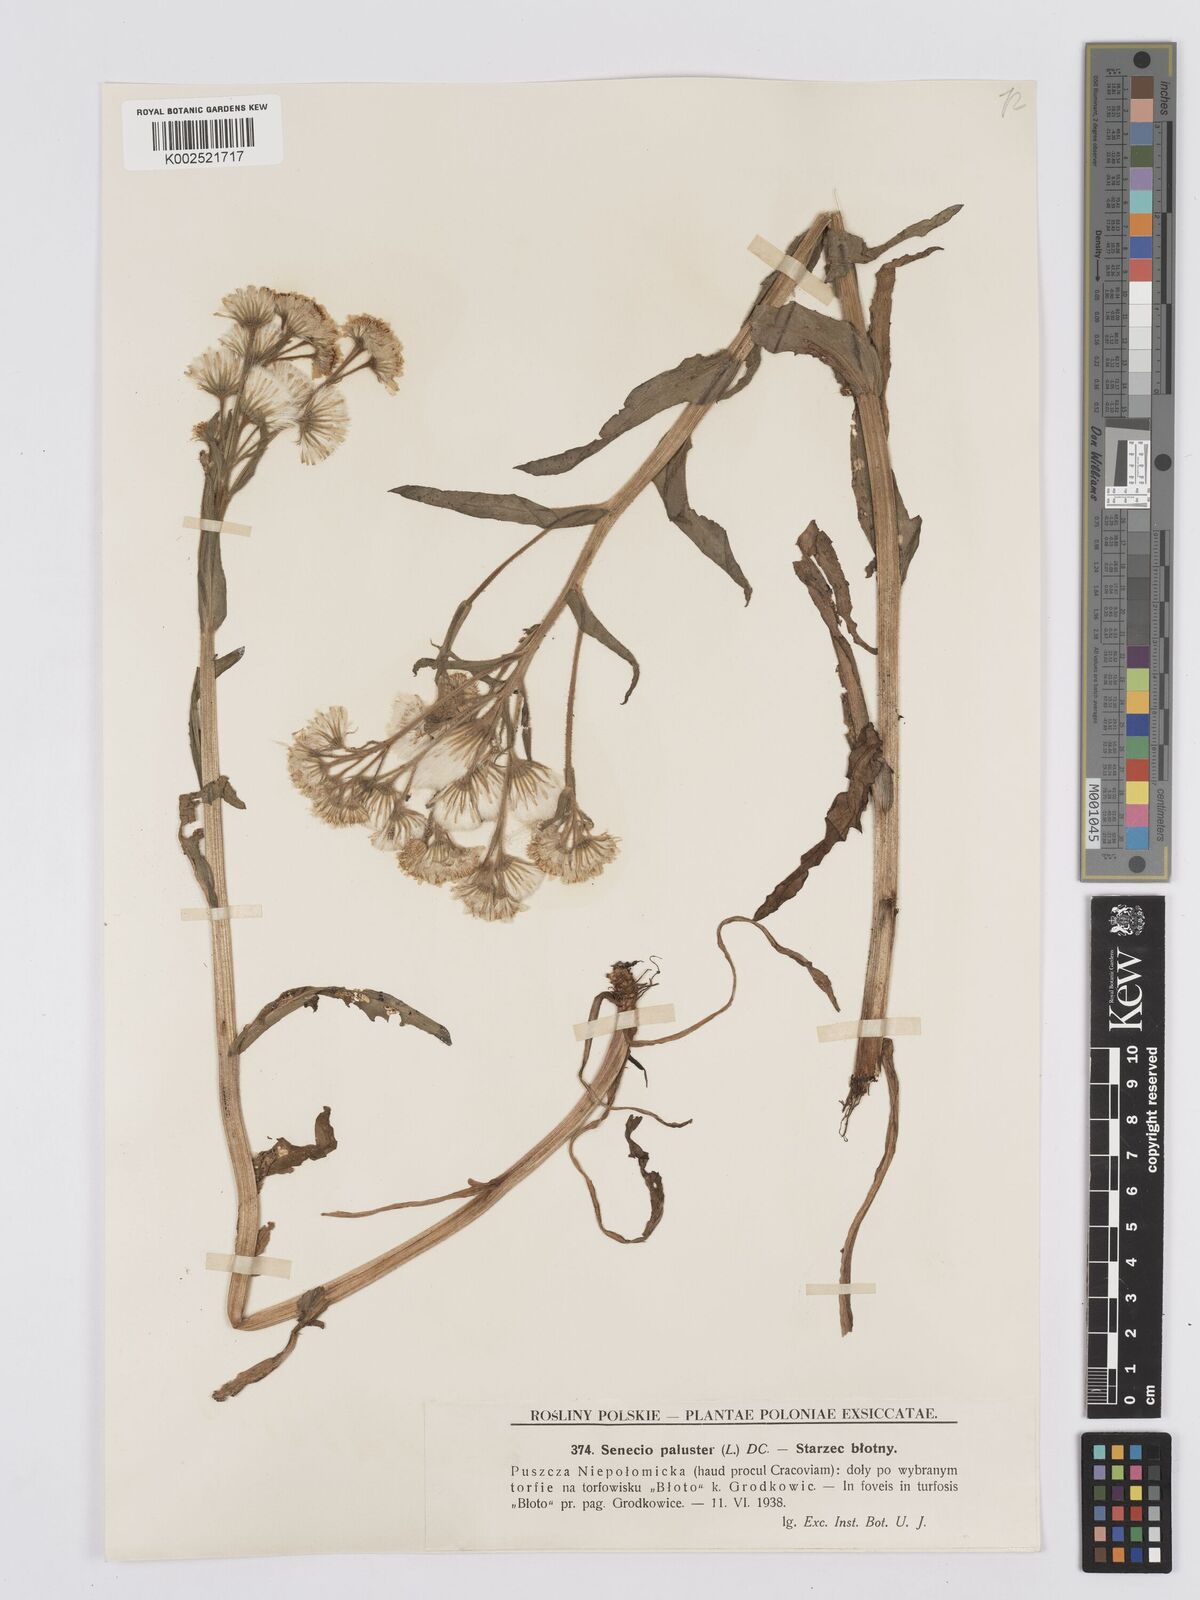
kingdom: Plantae
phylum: Tracheophyta
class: Magnoliopsida
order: Asterales
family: Asteraceae
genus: Tephroseris
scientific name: Tephroseris palustris
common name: Marsh fleawort
